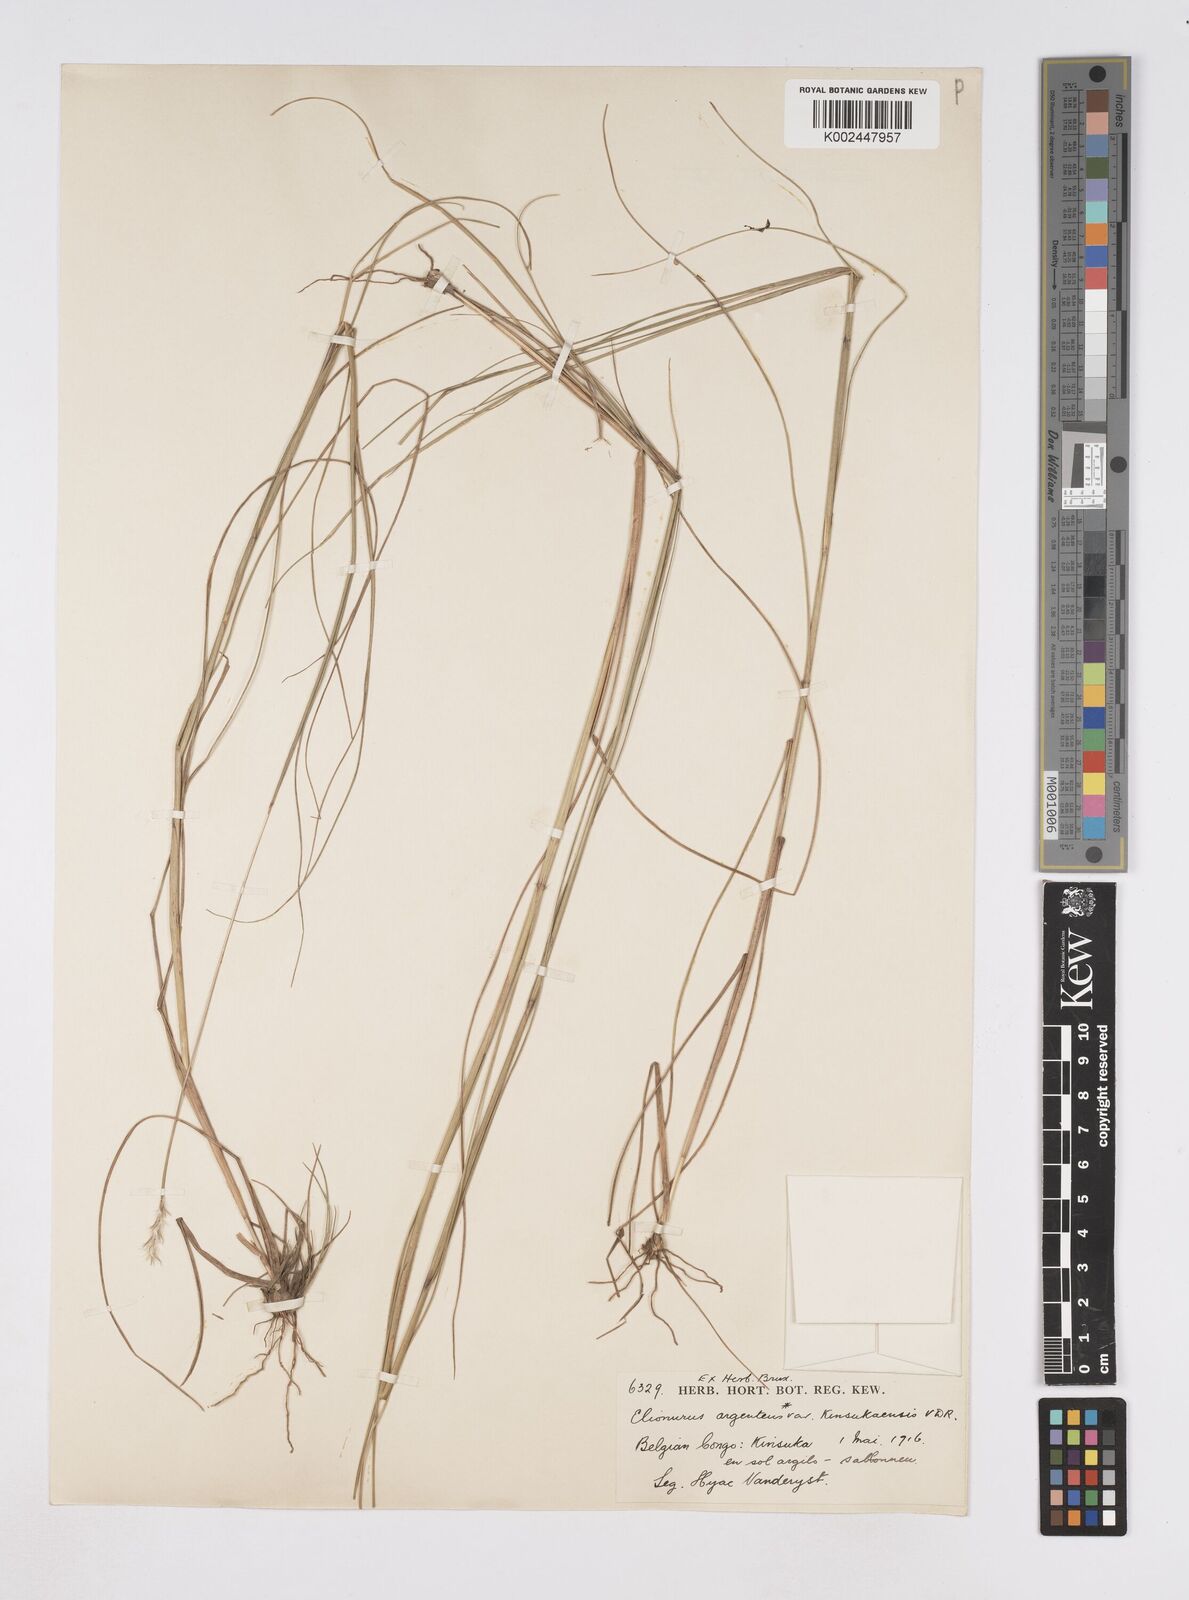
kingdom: Plantae
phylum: Tracheophyta
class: Liliopsida
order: Poales
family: Poaceae
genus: Elionurus
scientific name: Elionurus hensii
